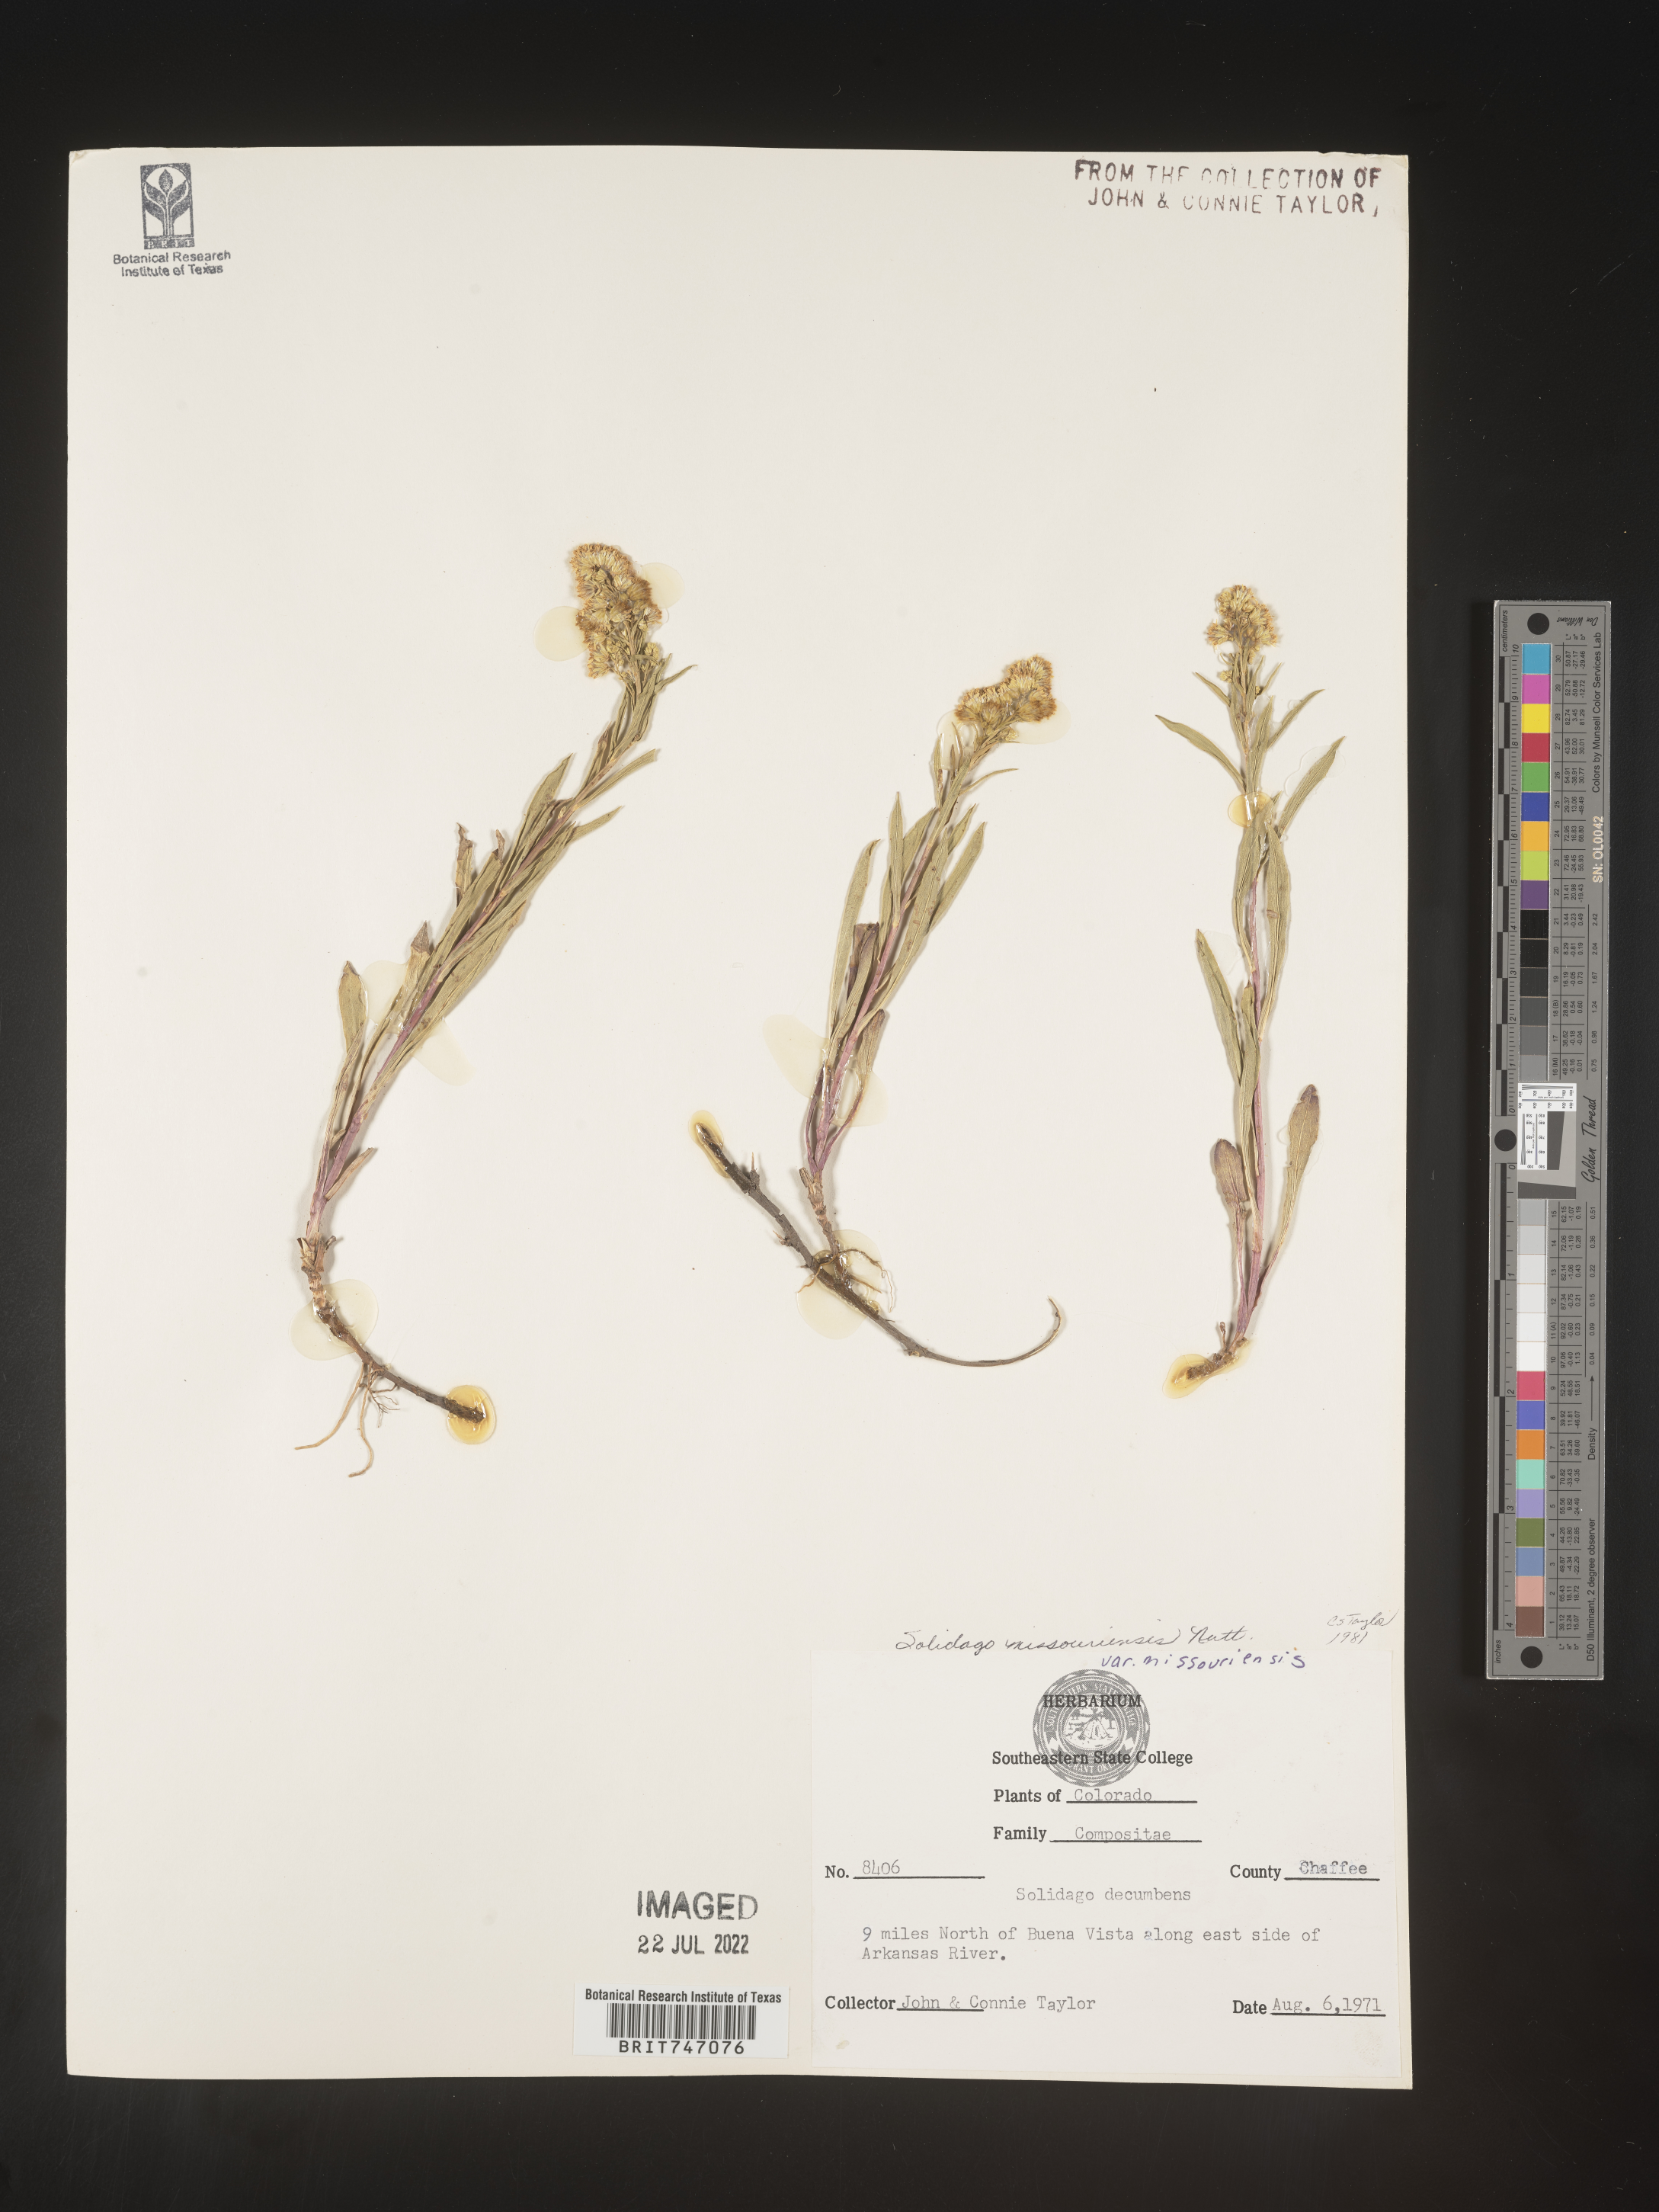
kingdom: Plantae
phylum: Tracheophyta
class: Magnoliopsida
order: Asterales
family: Asteraceae
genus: Solidago
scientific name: Solidago missouriensis
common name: Prairie goldenrod
